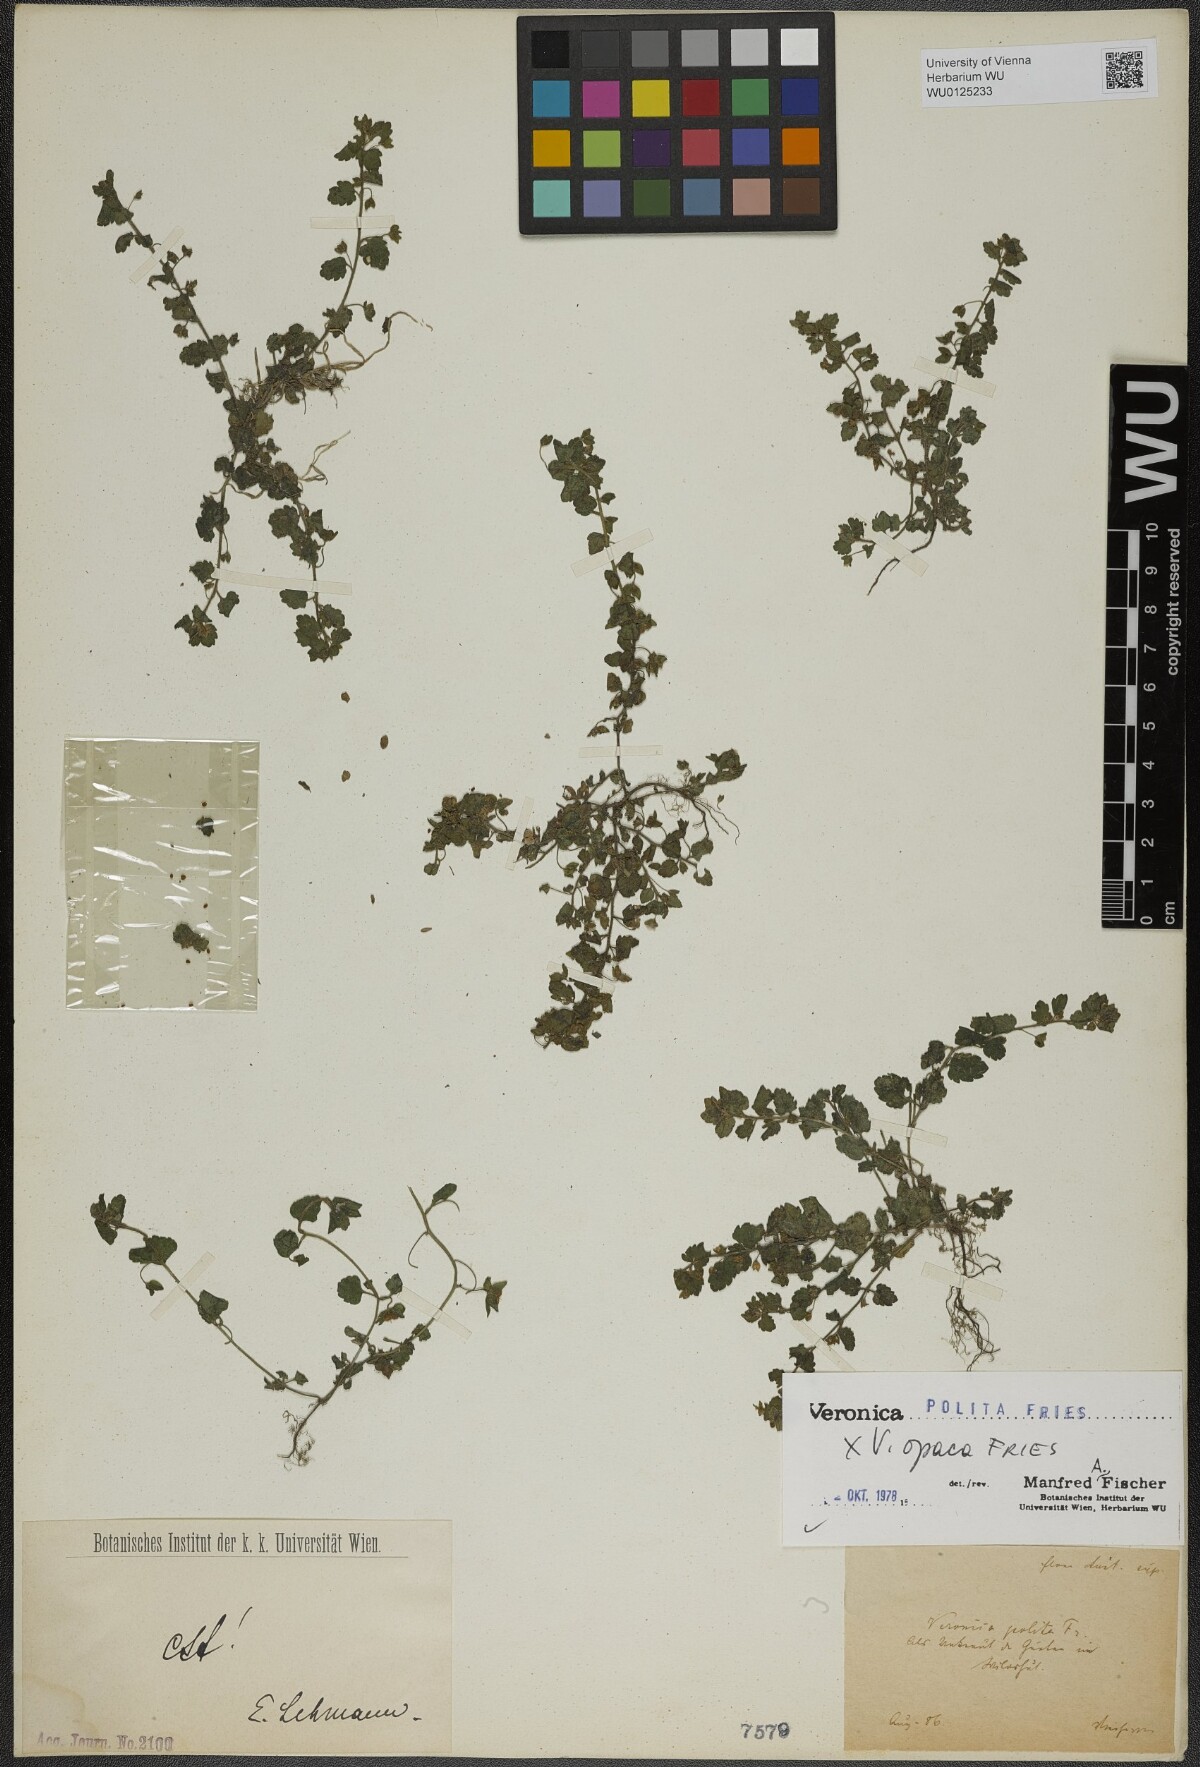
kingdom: Plantae
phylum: Tracheophyta
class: Magnoliopsida
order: Lamiales
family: Plantaginaceae
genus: Veronica
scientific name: Veronica polita
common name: Grey field-speedwell
